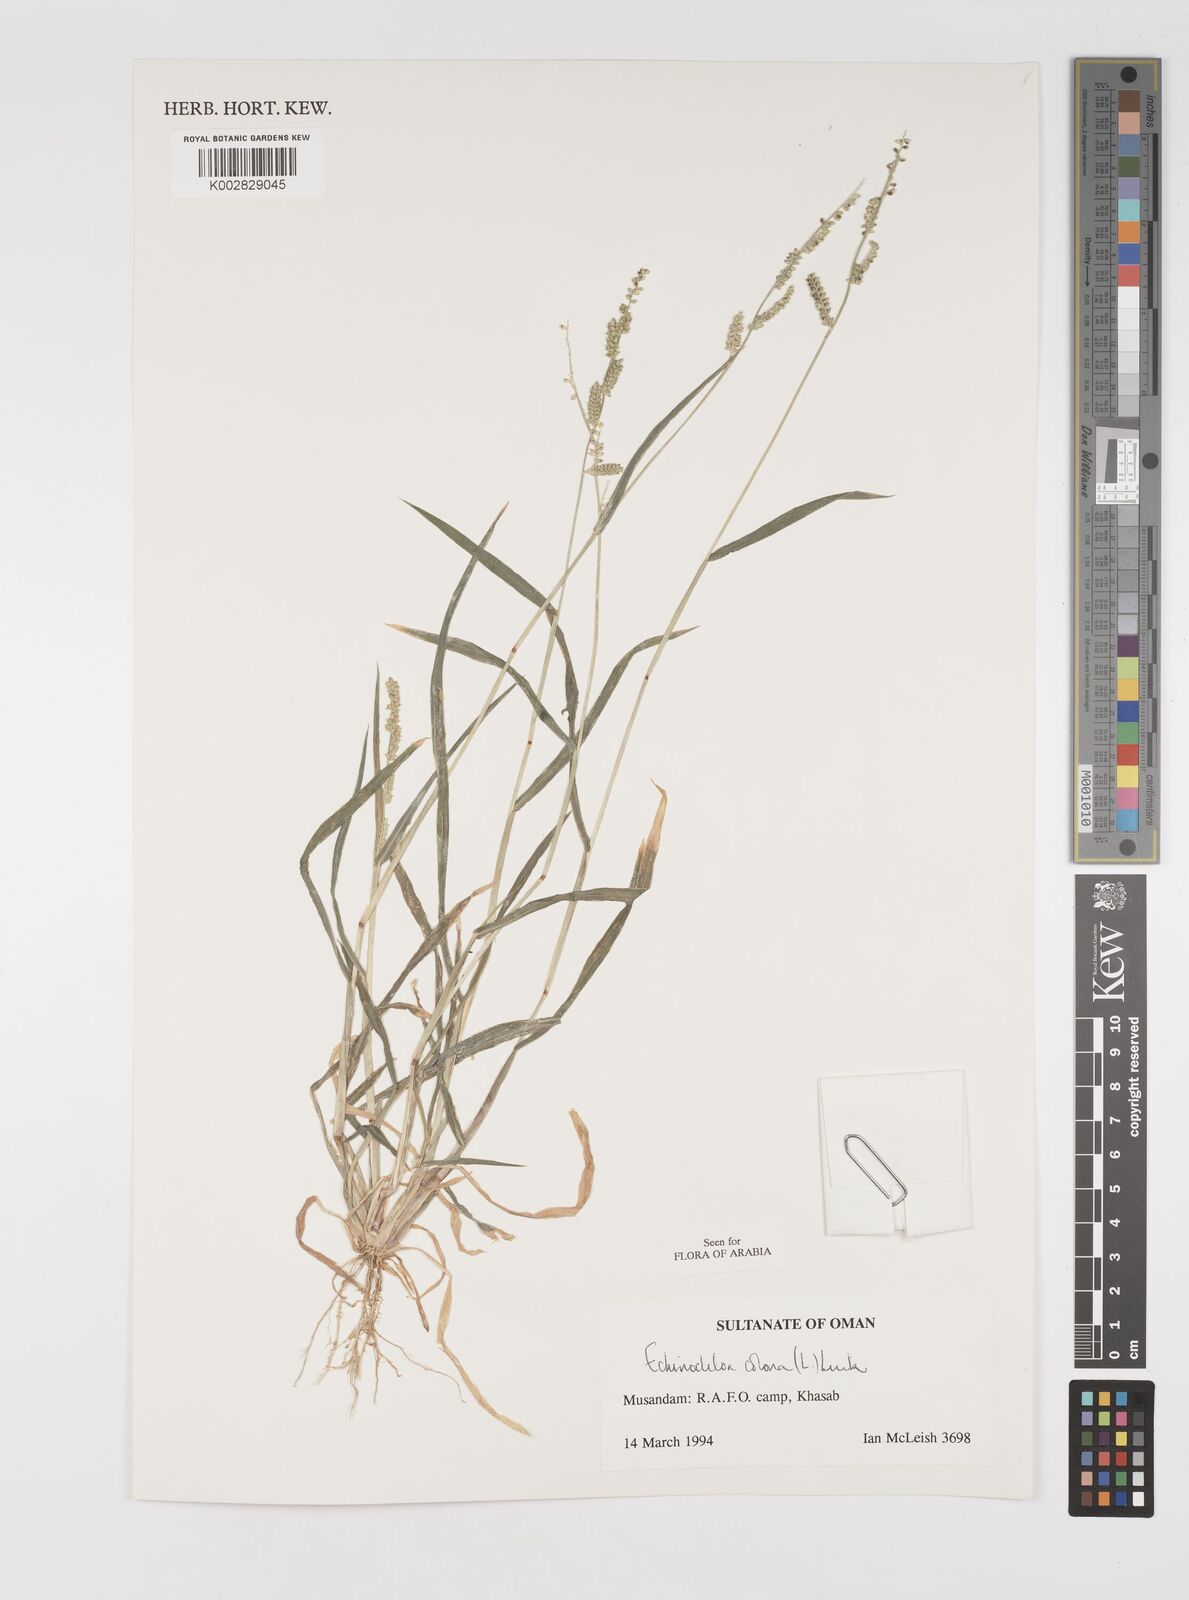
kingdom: Plantae
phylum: Tracheophyta
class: Liliopsida
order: Poales
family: Poaceae
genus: Echinochloa
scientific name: Echinochloa colonum
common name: Jungle rice
